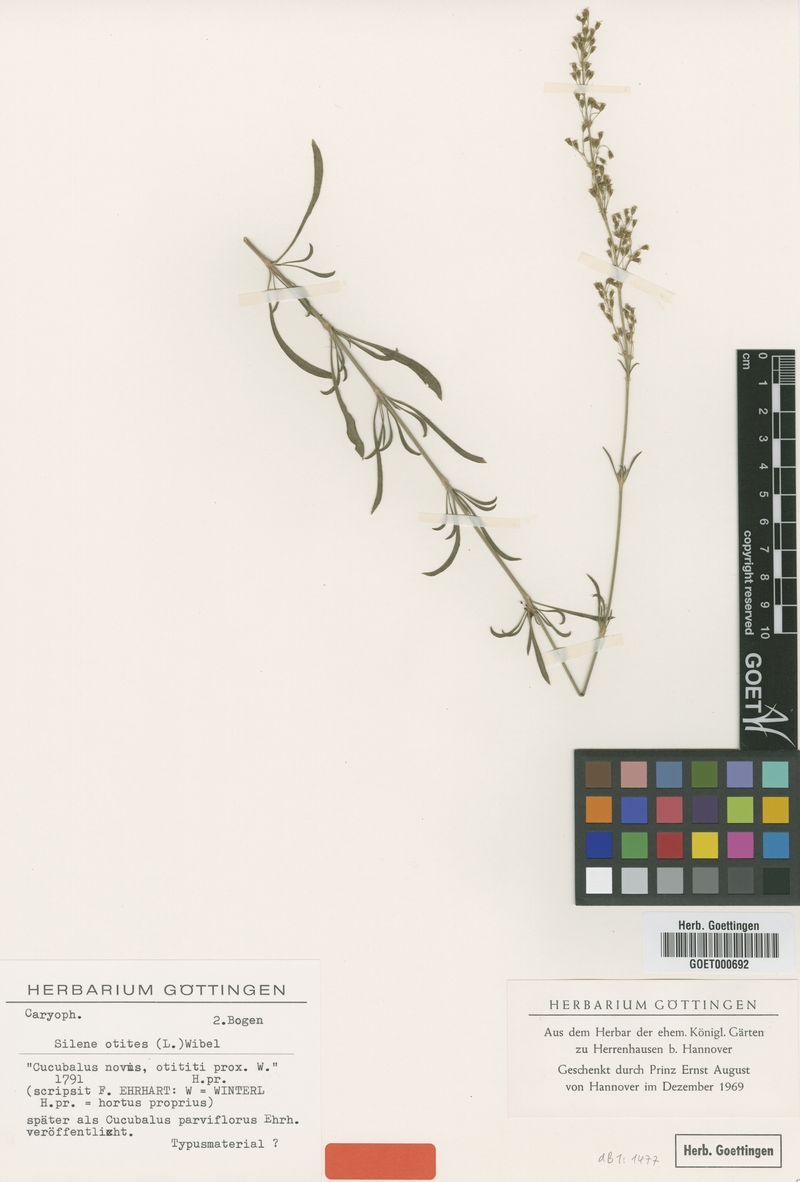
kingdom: Plantae
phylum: Tracheophyta
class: Magnoliopsida
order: Caryophyllales
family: Caryophyllaceae
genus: Silene
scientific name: Silene otites
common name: Spanish catchfly
